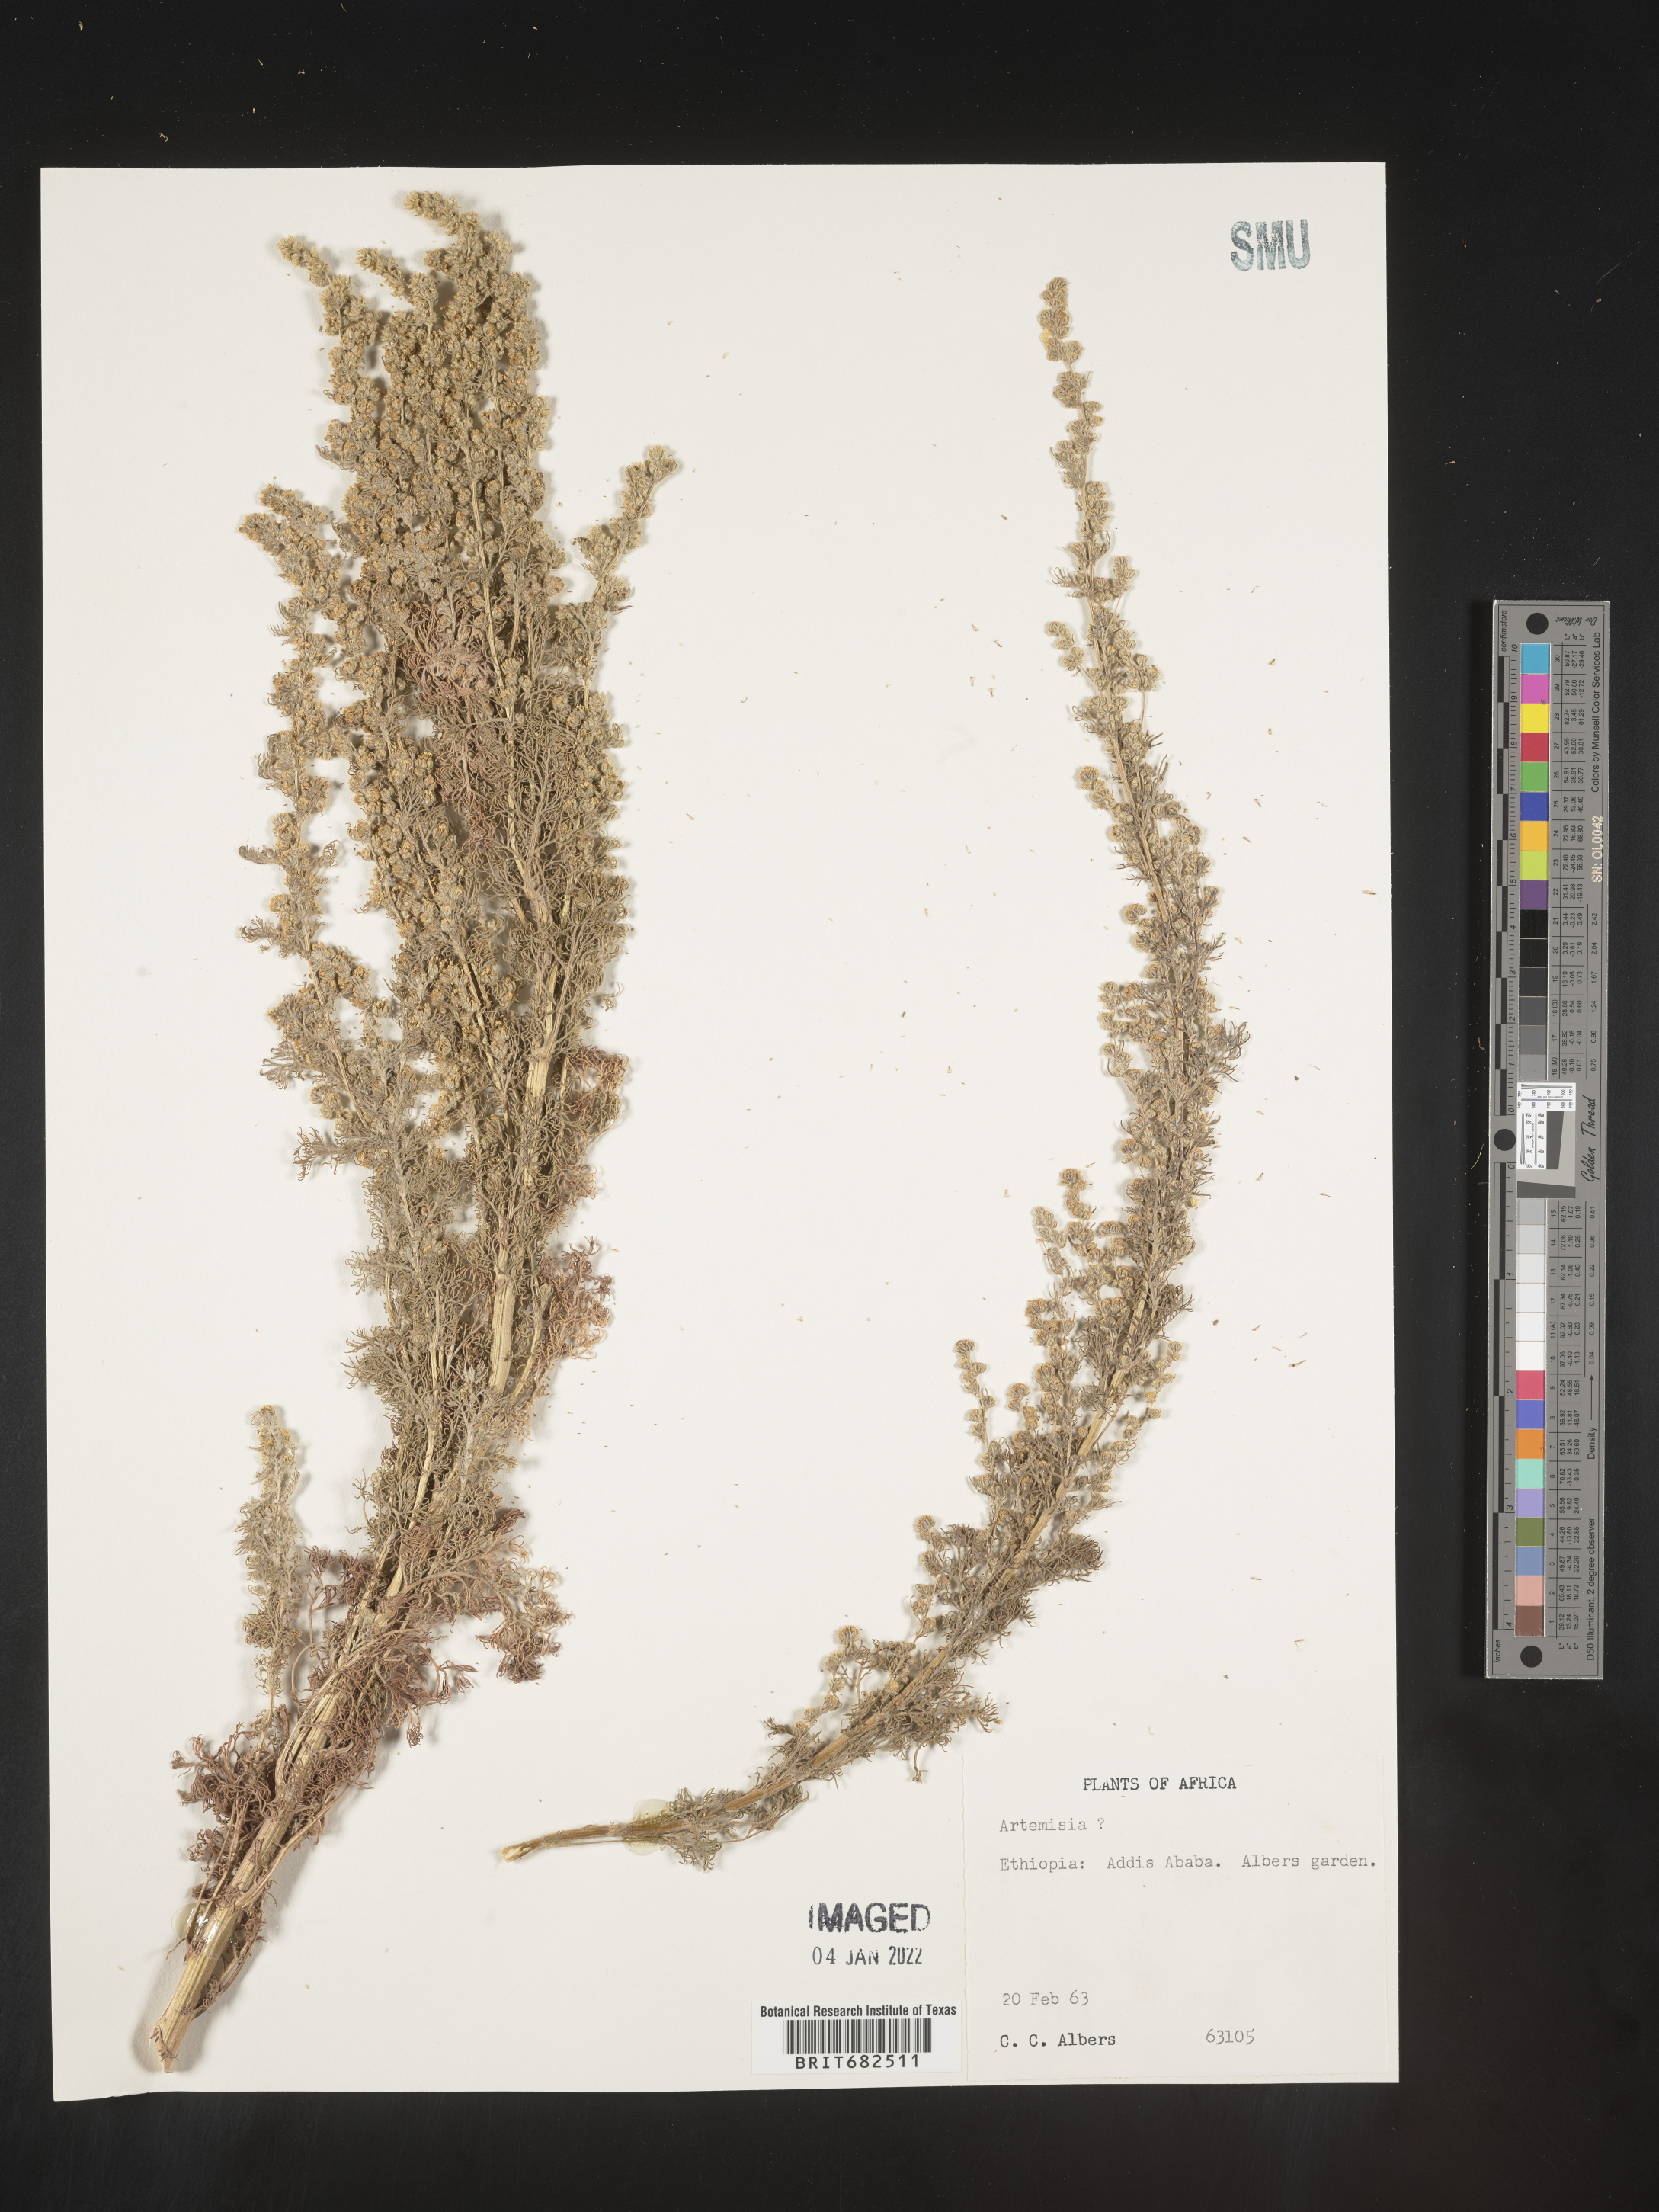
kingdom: Plantae
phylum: Tracheophyta
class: Magnoliopsida
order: Asterales
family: Asteraceae
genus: Artemisia
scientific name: Artemisia
